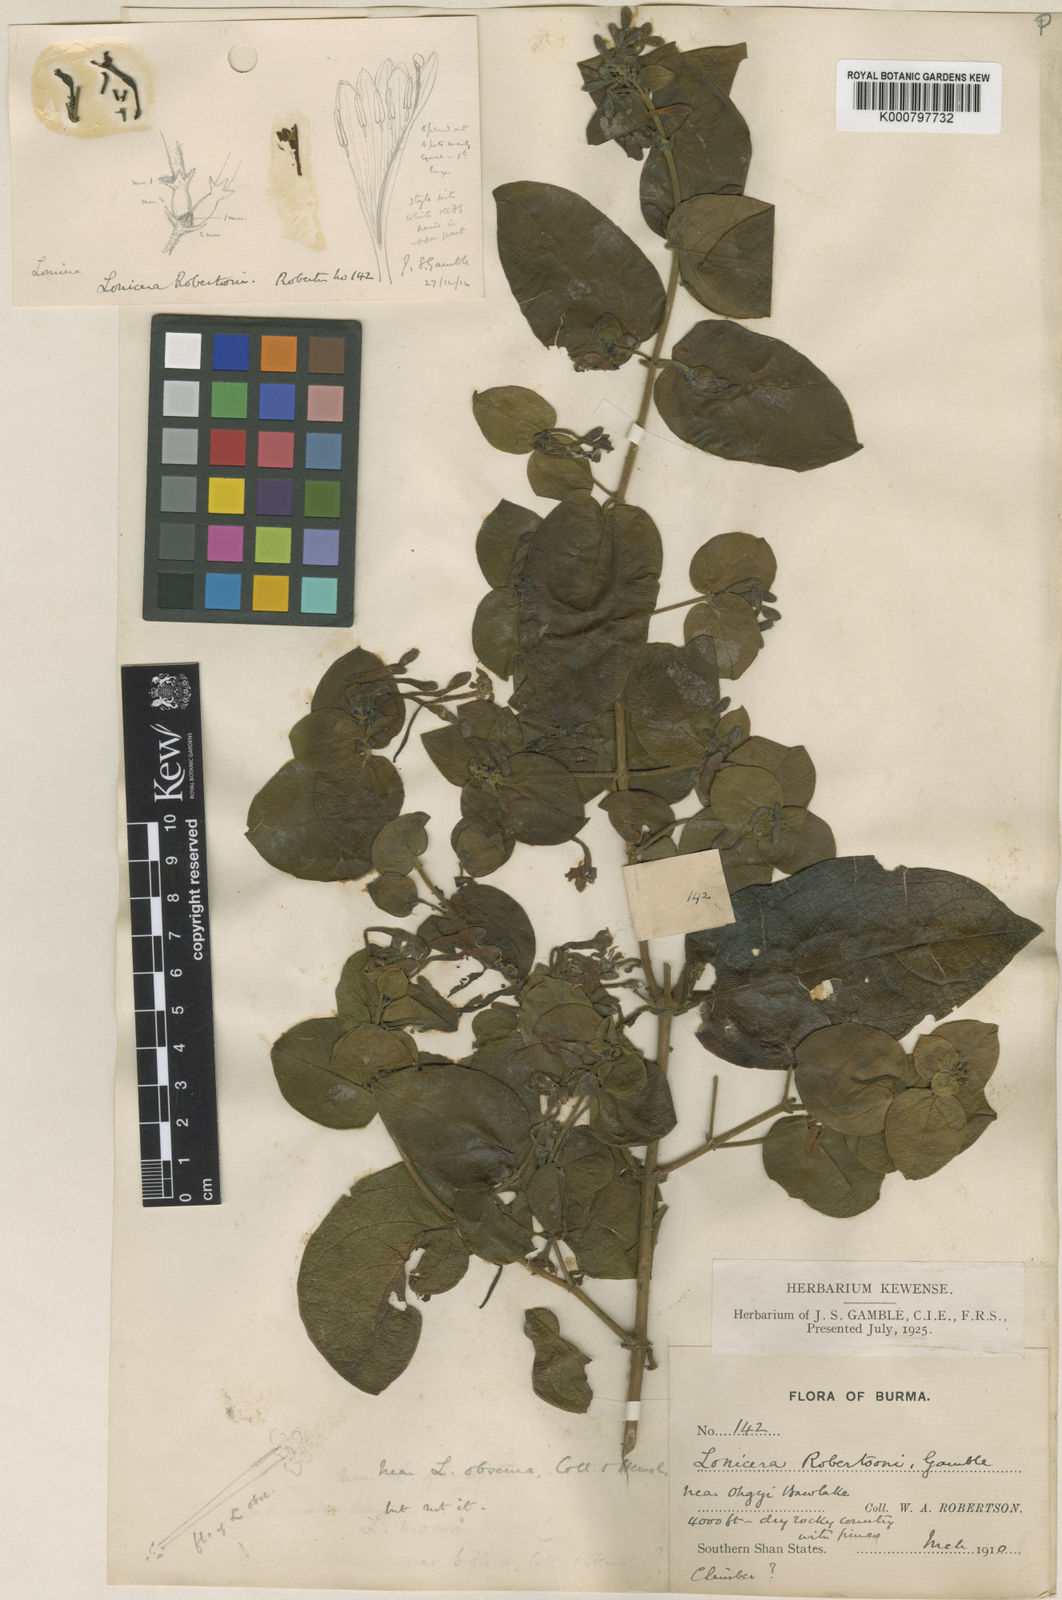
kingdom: Plantae
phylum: Tracheophyta
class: Magnoliopsida
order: Dipsacales
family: Caprifoliaceae
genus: Lonicera
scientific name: Lonicera siamensis
